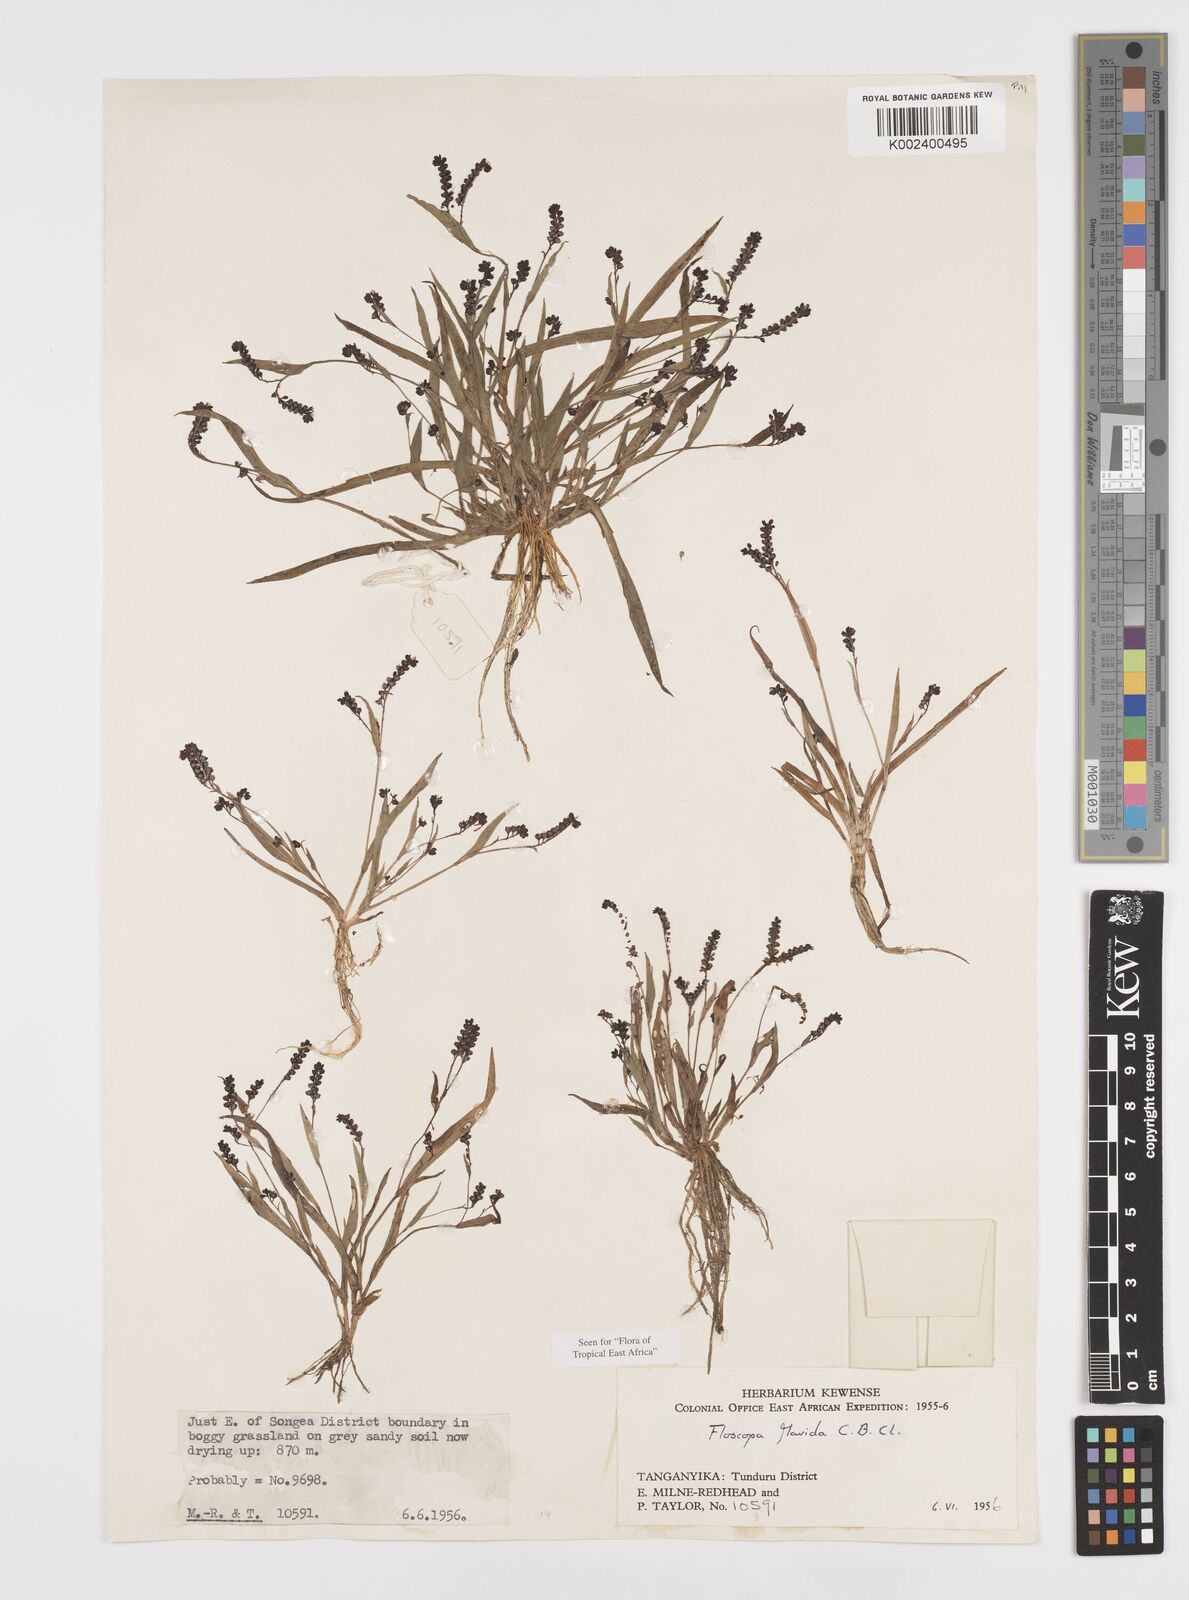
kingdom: Plantae
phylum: Tracheophyta
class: Liliopsida
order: Commelinales
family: Commelinaceae
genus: Floscopa
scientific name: Floscopa flavida
